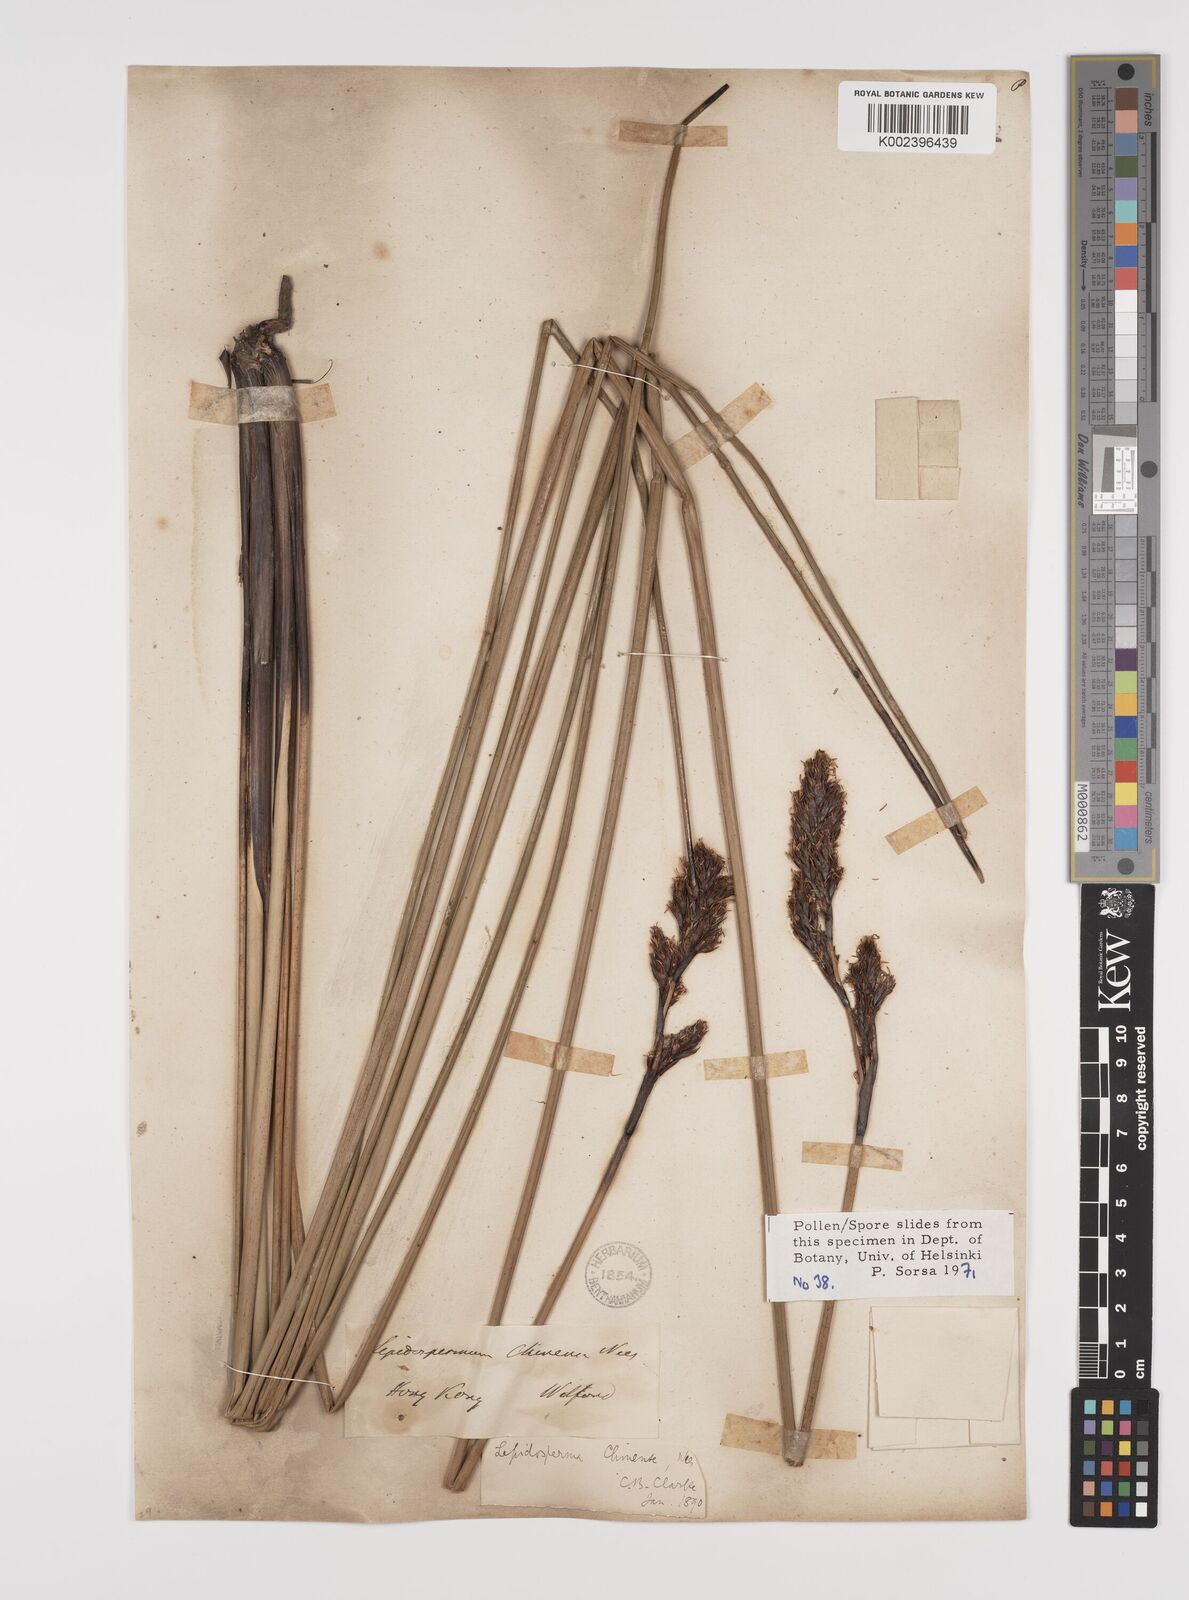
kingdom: Plantae
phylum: Tracheophyta
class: Liliopsida
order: Poales
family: Cyperaceae
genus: Lepidosperma
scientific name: Lepidosperma chinense
